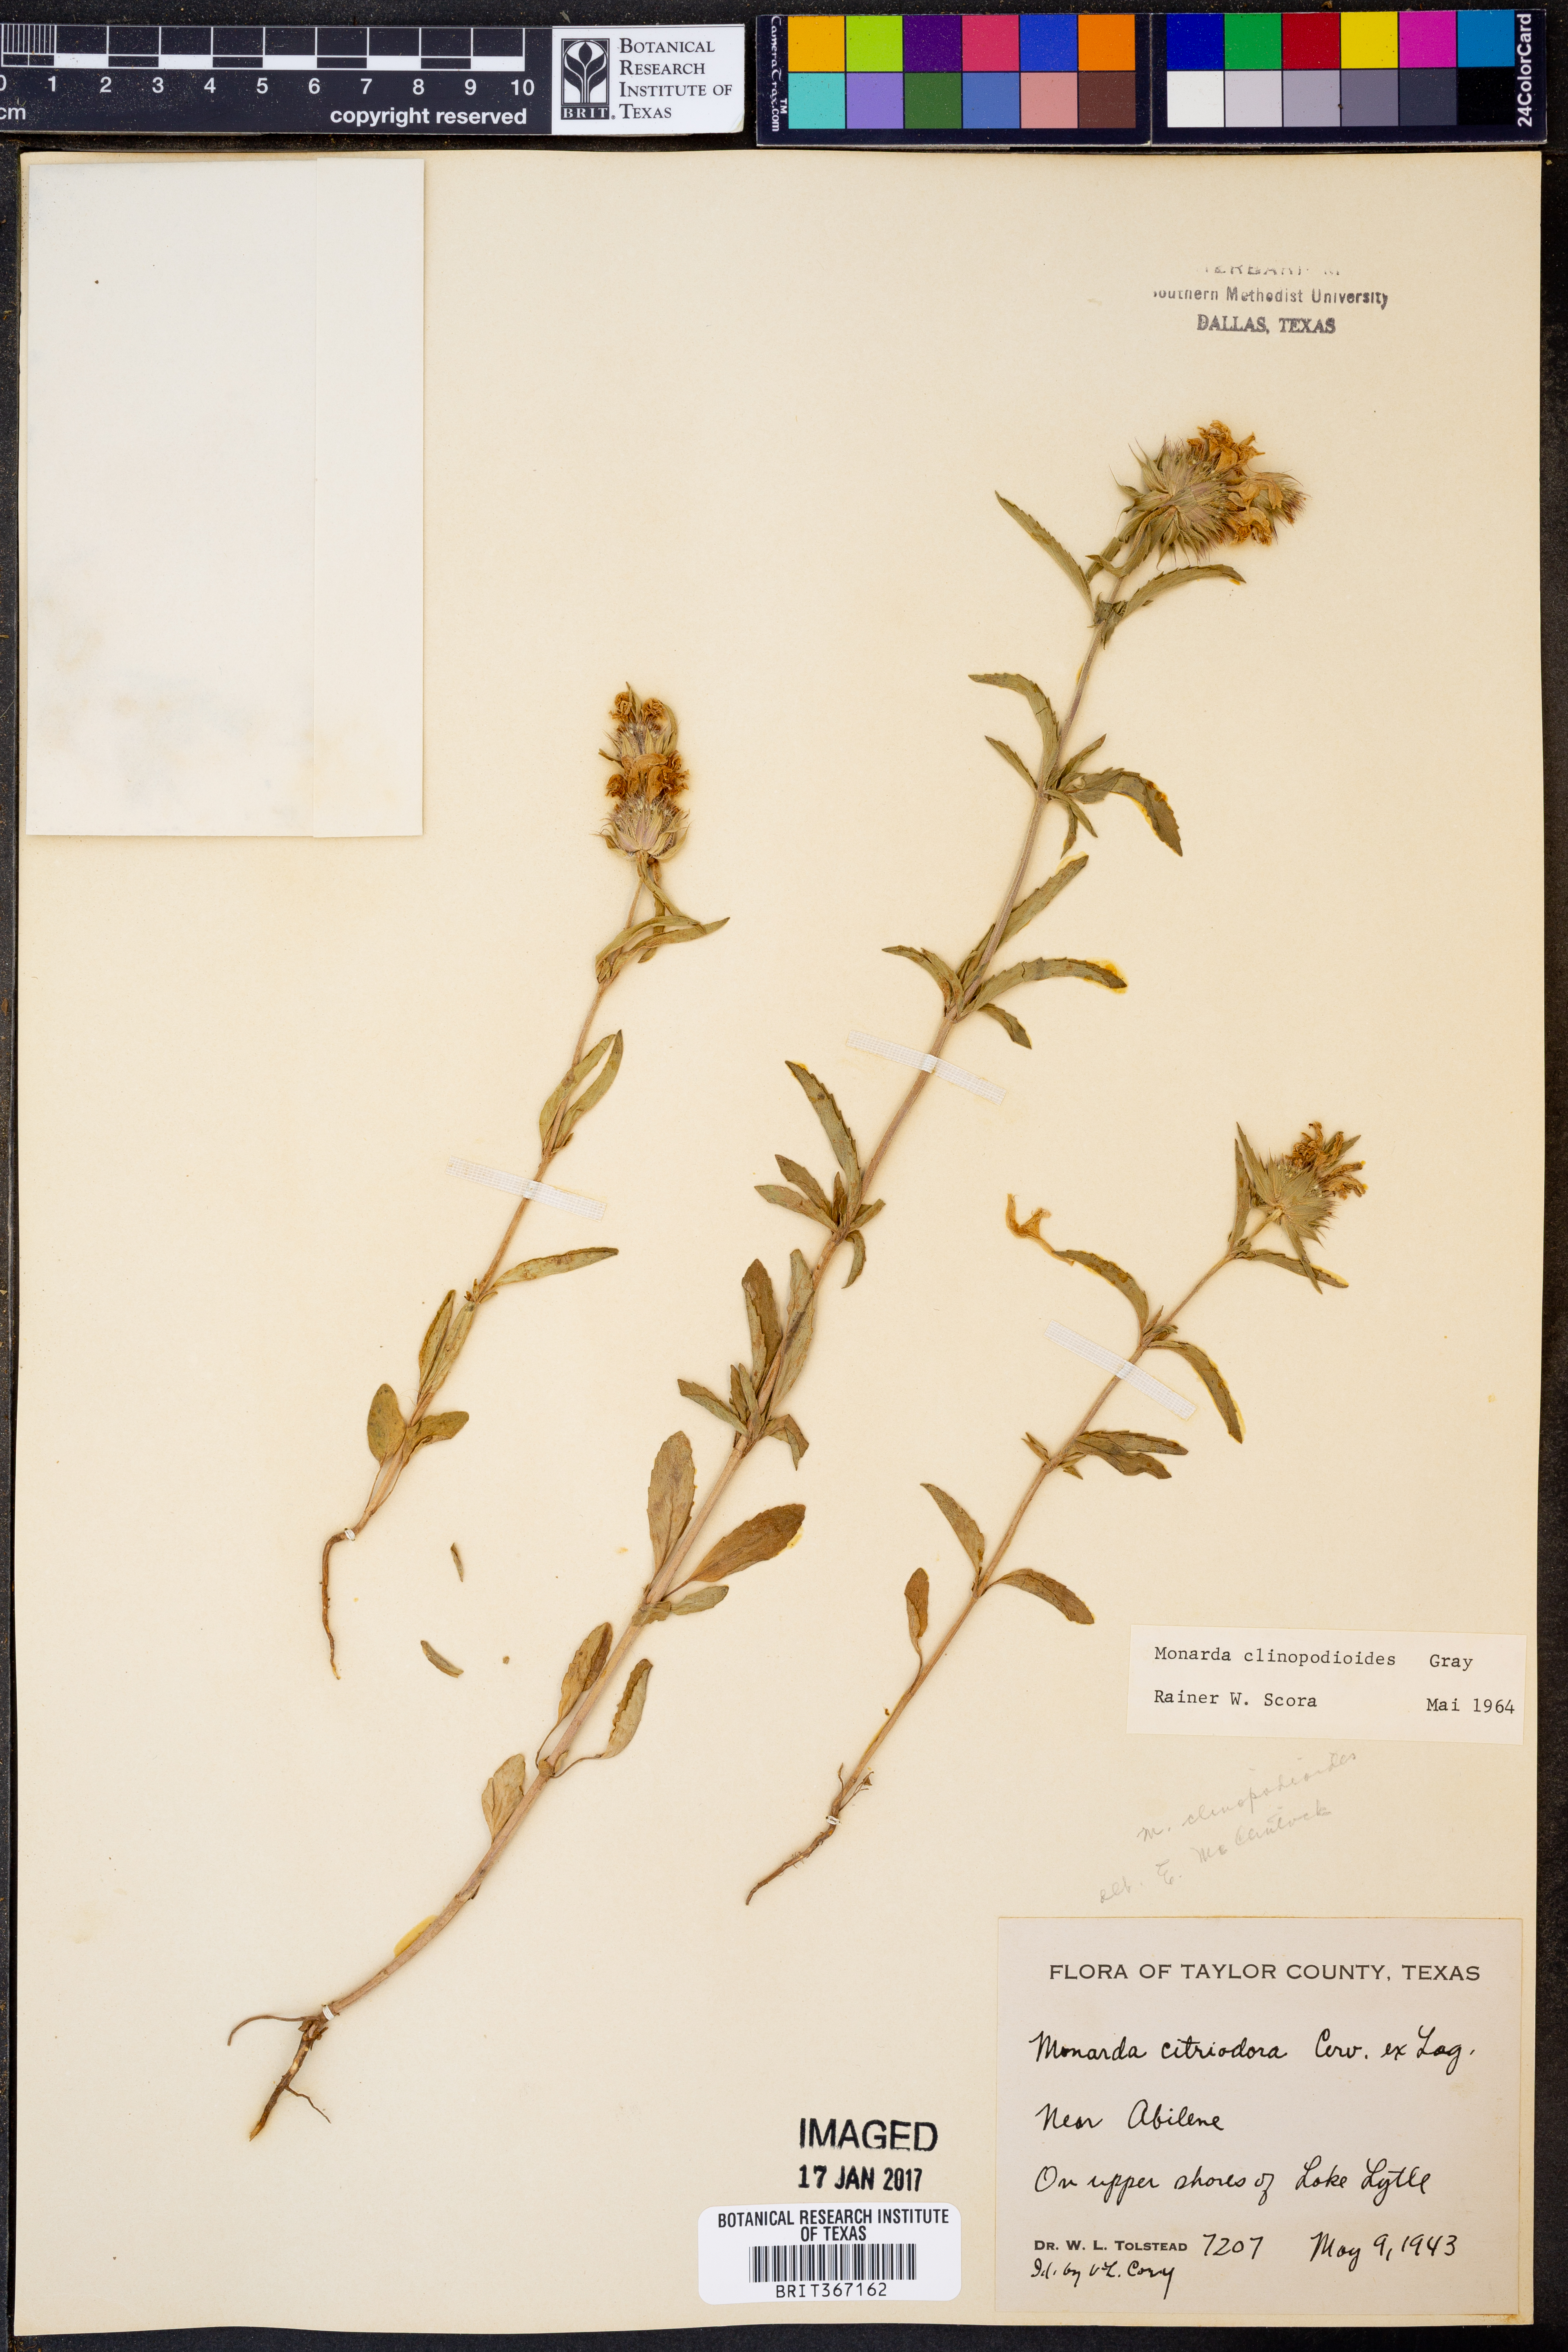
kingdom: Plantae
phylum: Tracheophyta
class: Magnoliopsida
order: Lamiales
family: Lamiaceae
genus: Monarda
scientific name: Monarda clinopodioides
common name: Basil beebalm
